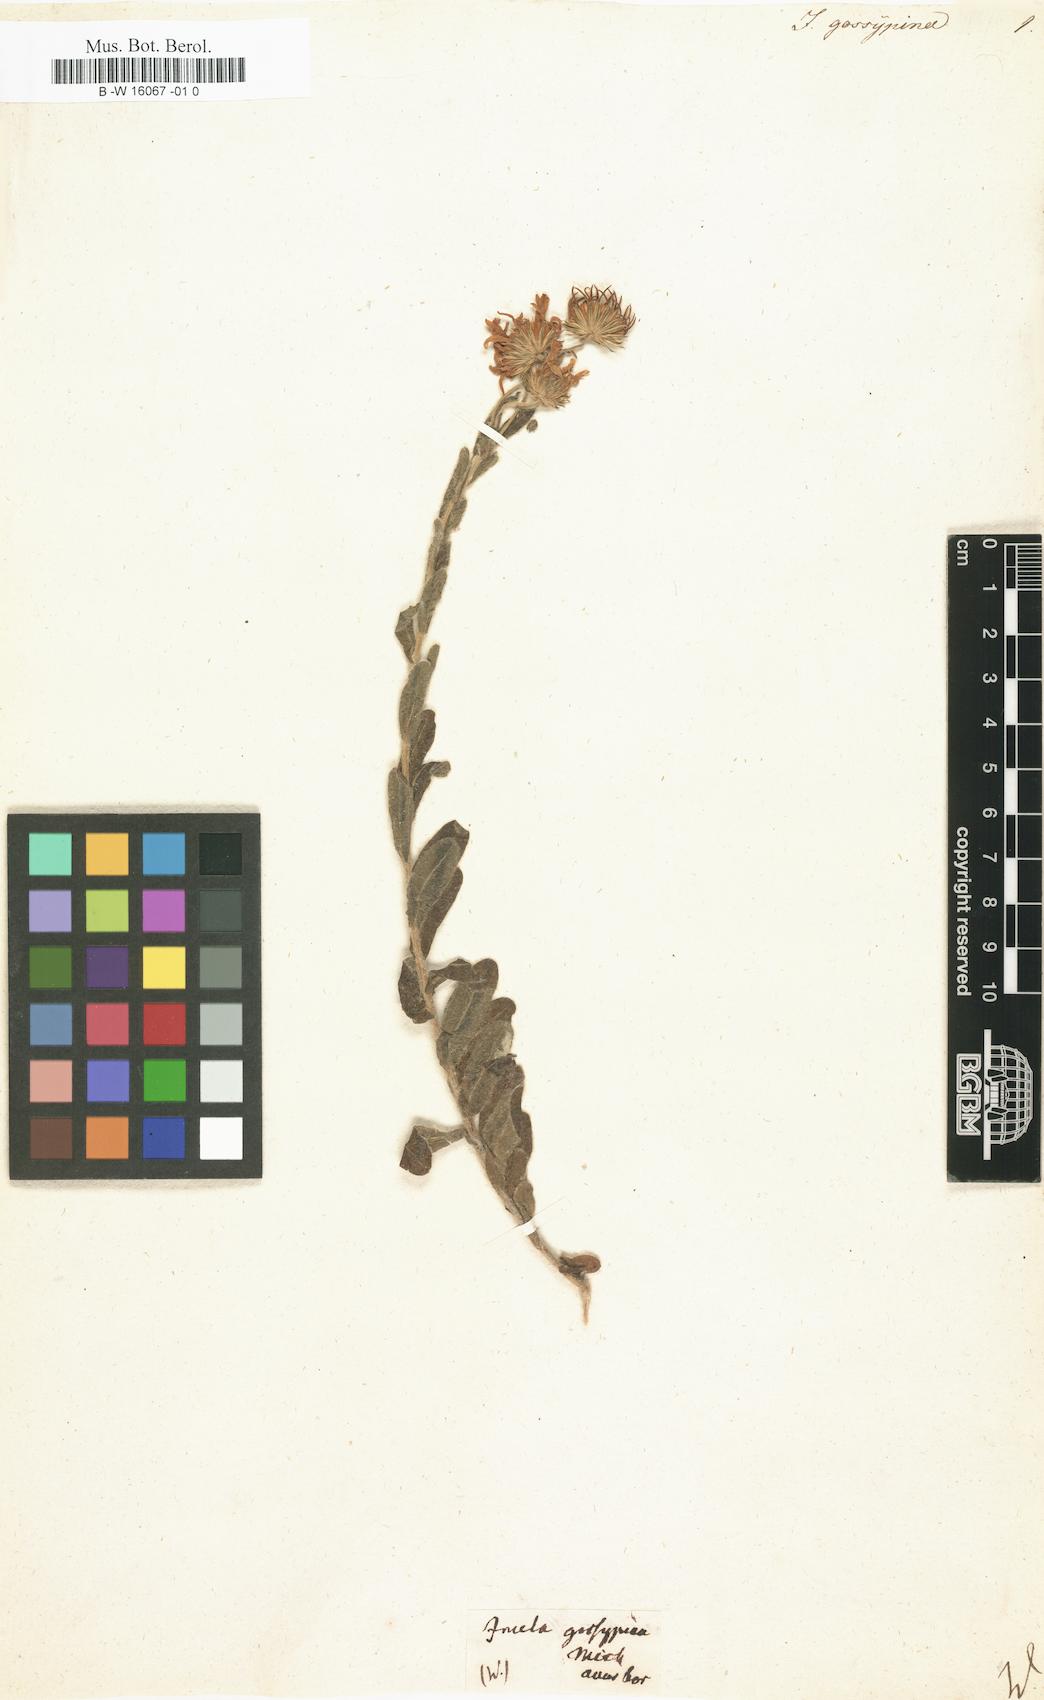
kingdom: Plantae
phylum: Tracheophyta
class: Magnoliopsida
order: Asterales
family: Asteraceae
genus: Chrysopsis
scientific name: Chrysopsis gossypina
